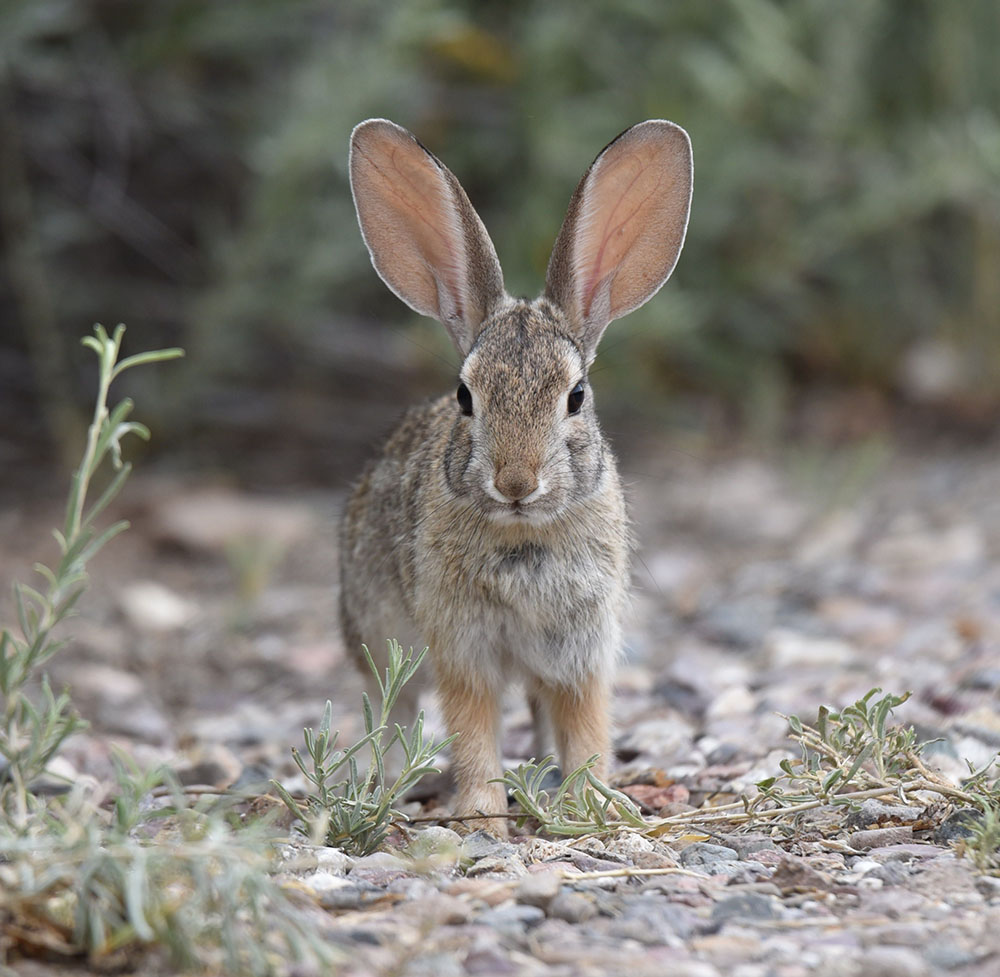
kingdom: Animalia
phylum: Chordata
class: Mammalia
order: Lagomorpha
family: Leporidae
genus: Sylvilagus
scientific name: Sylvilagus audubonii
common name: Desert cottontail
